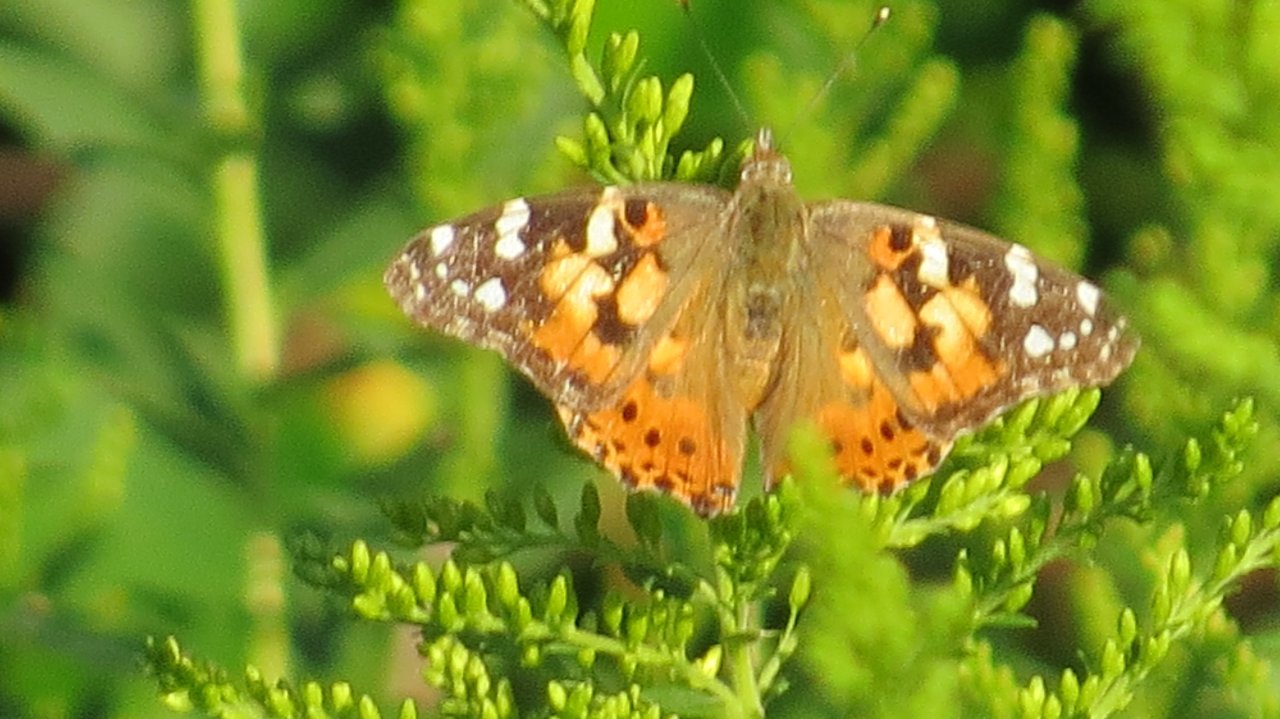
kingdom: Animalia
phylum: Arthropoda
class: Insecta
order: Lepidoptera
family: Nymphalidae
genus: Vanessa
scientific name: Vanessa cardui
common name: Painted Lady
